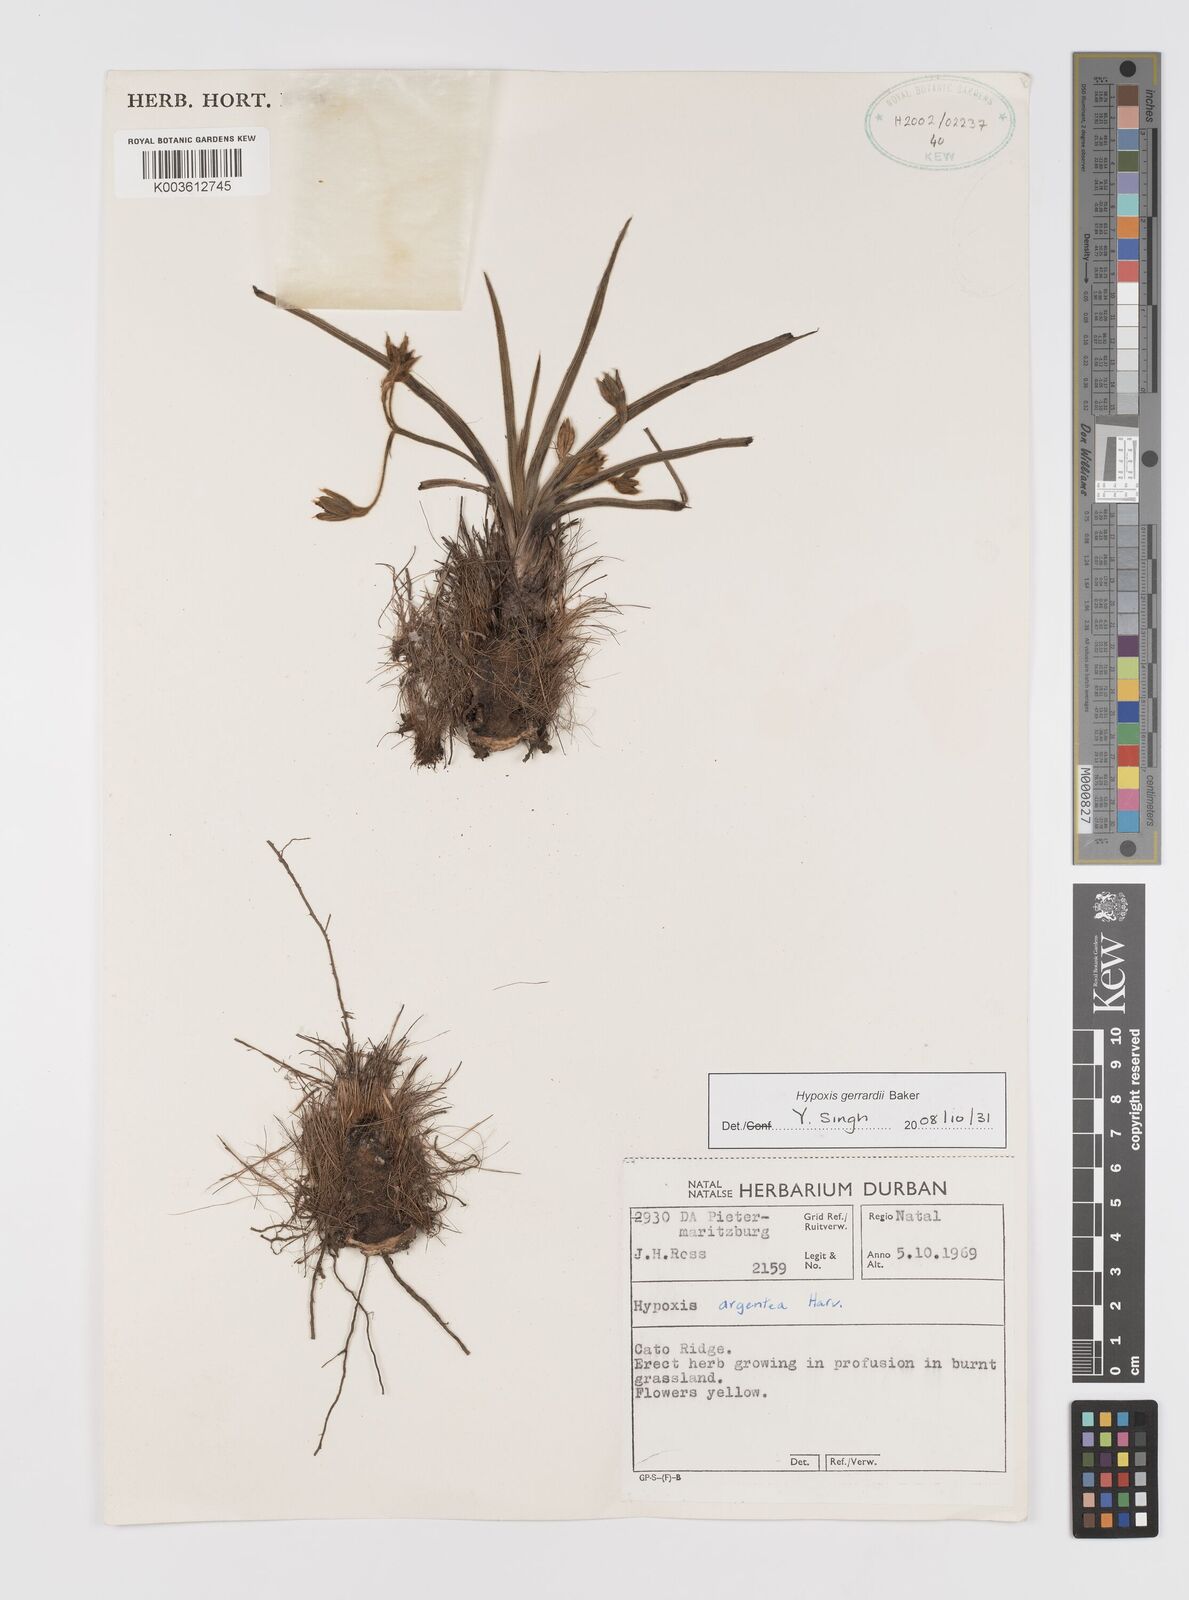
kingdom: Plantae
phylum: Tracheophyta
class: Liliopsida
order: Asparagales
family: Hypoxidaceae
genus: Hypoxis
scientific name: Hypoxis gerrardii
